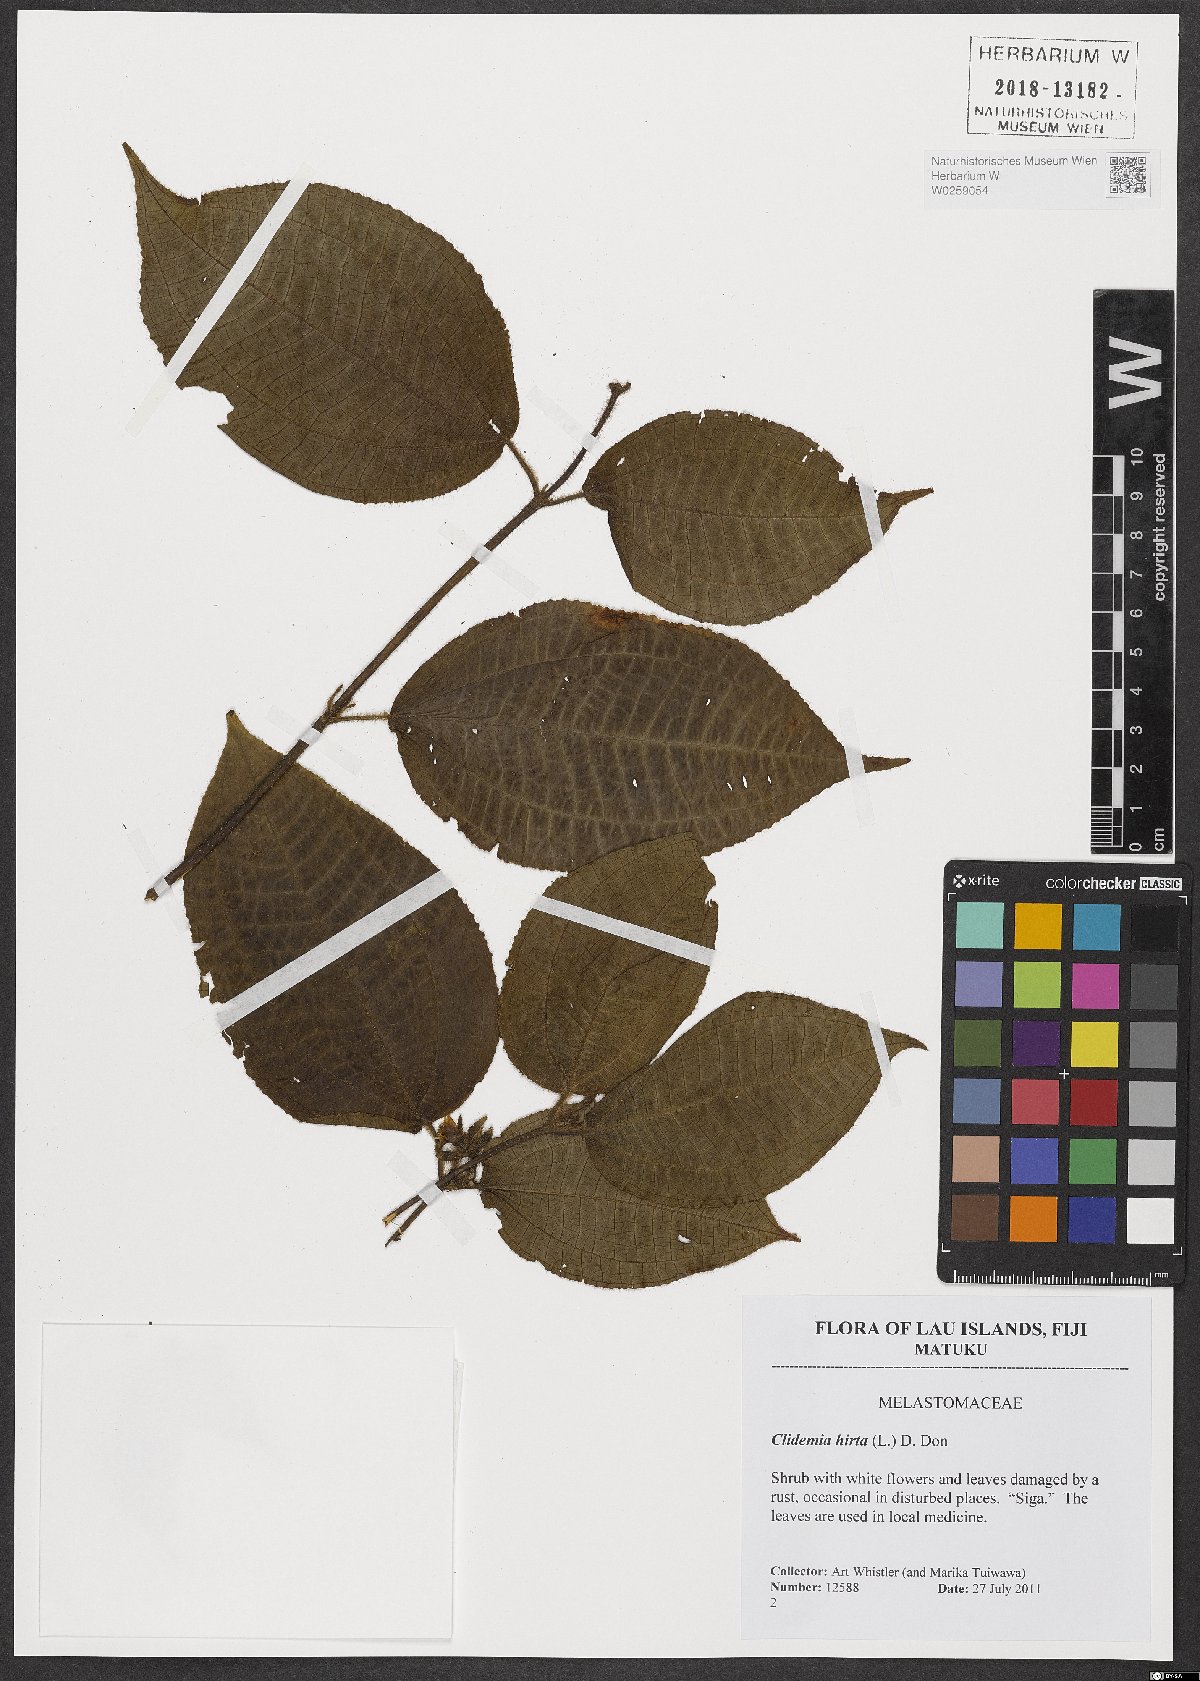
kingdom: Plantae
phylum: Tracheophyta
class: Magnoliopsida
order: Myrtales
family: Melastomataceae
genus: Miconia
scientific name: Miconia crenata
